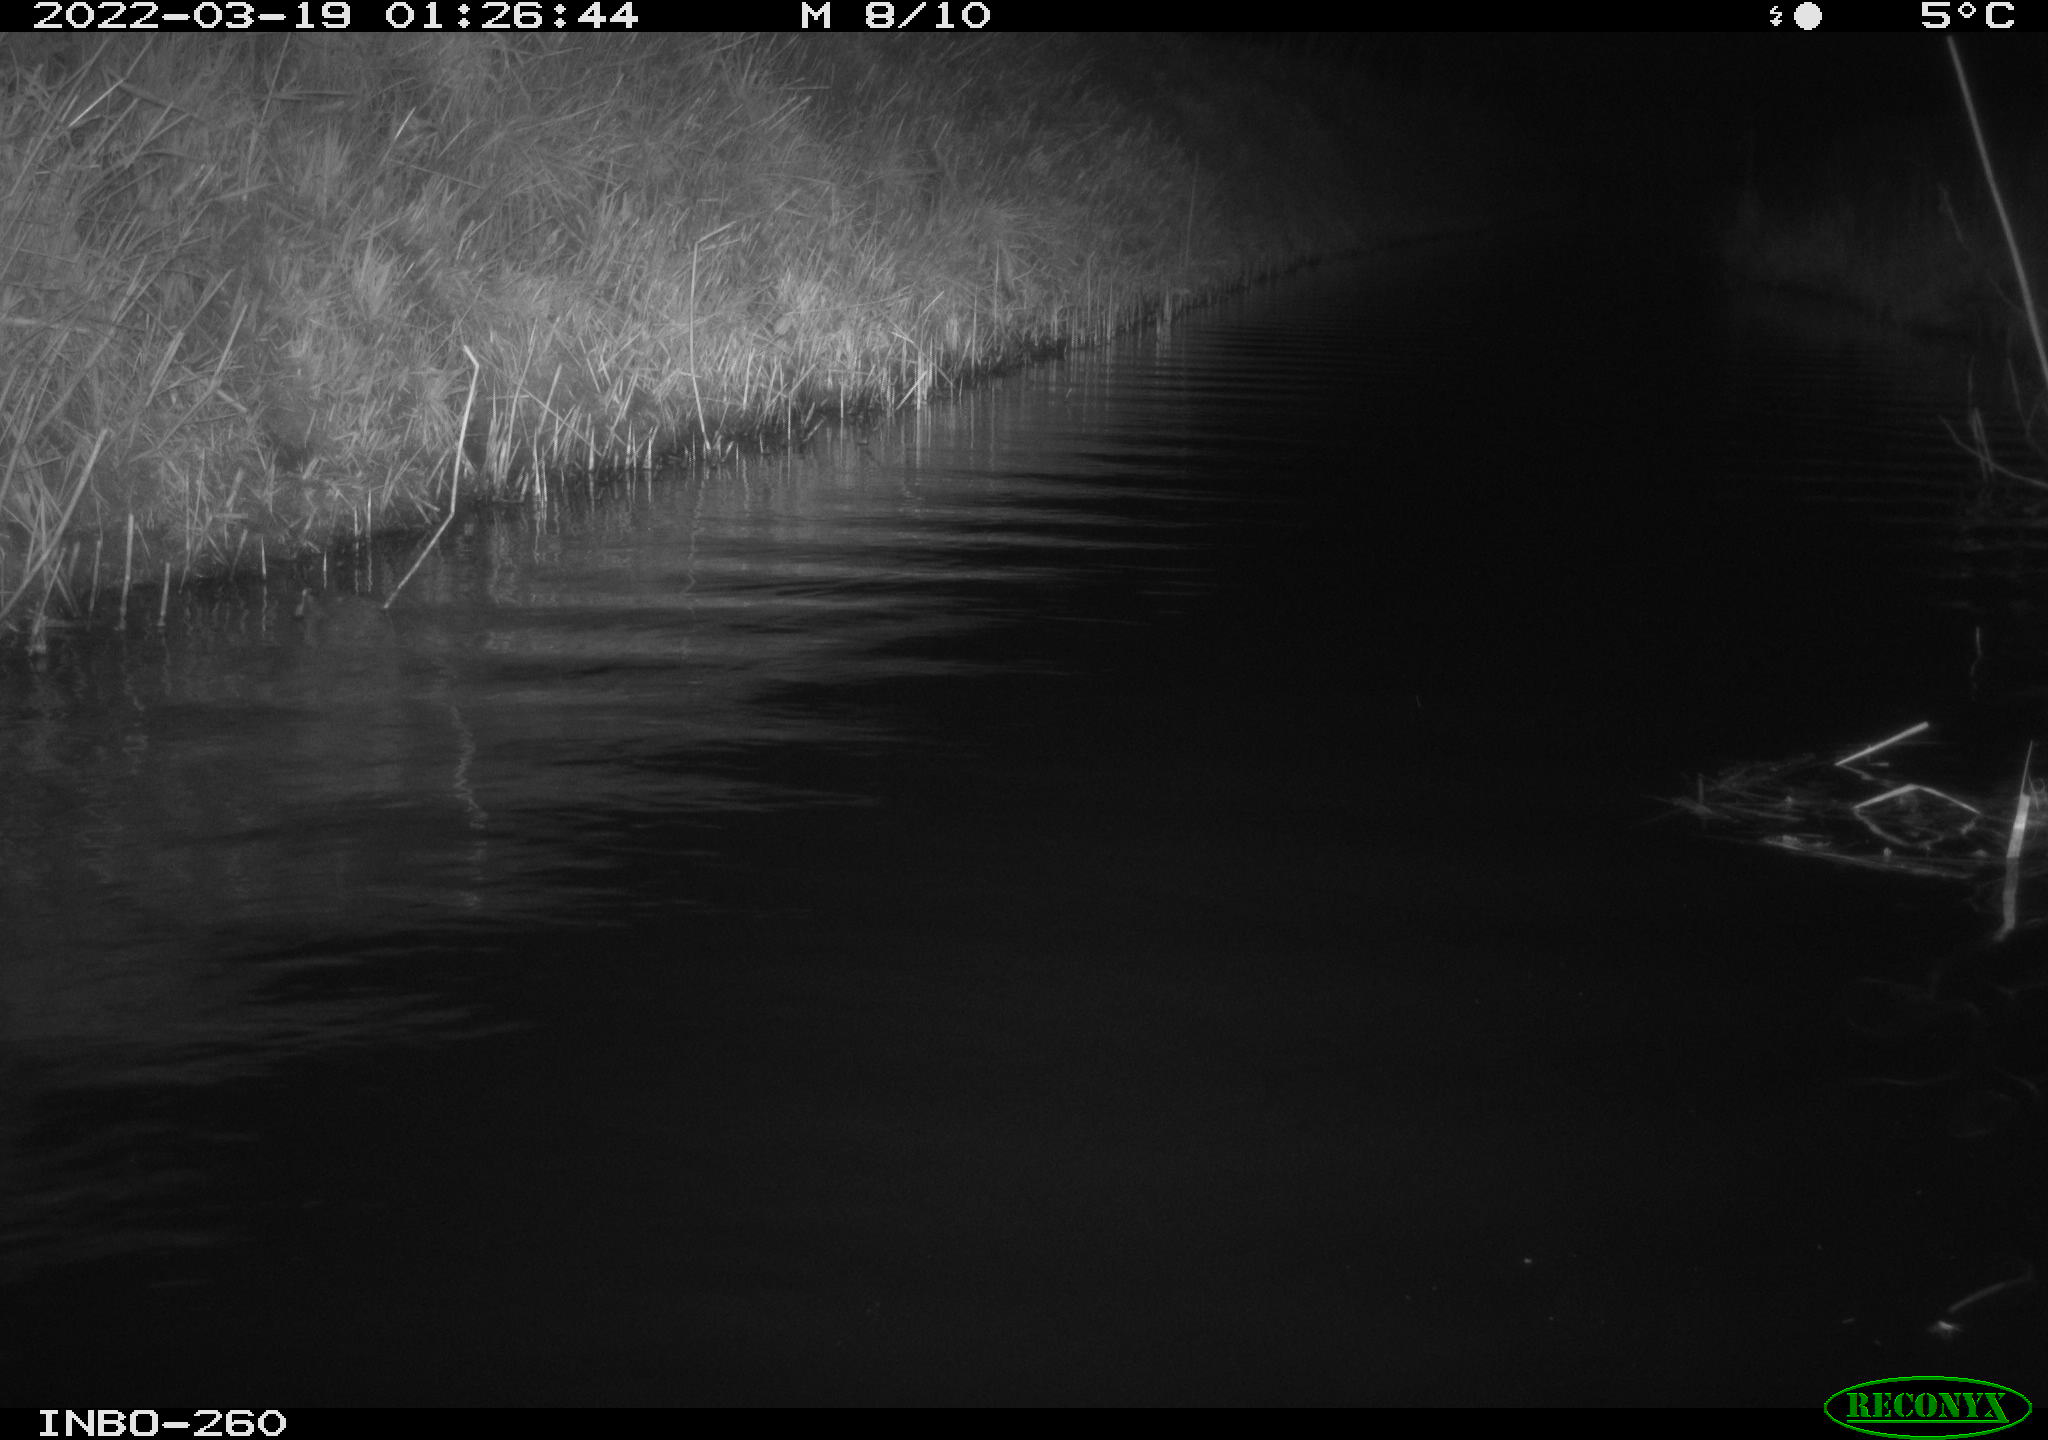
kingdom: Animalia
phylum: Chordata
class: Mammalia
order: Rodentia
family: Cricetidae
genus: Ondatra
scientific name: Ondatra zibethicus
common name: Muskrat
